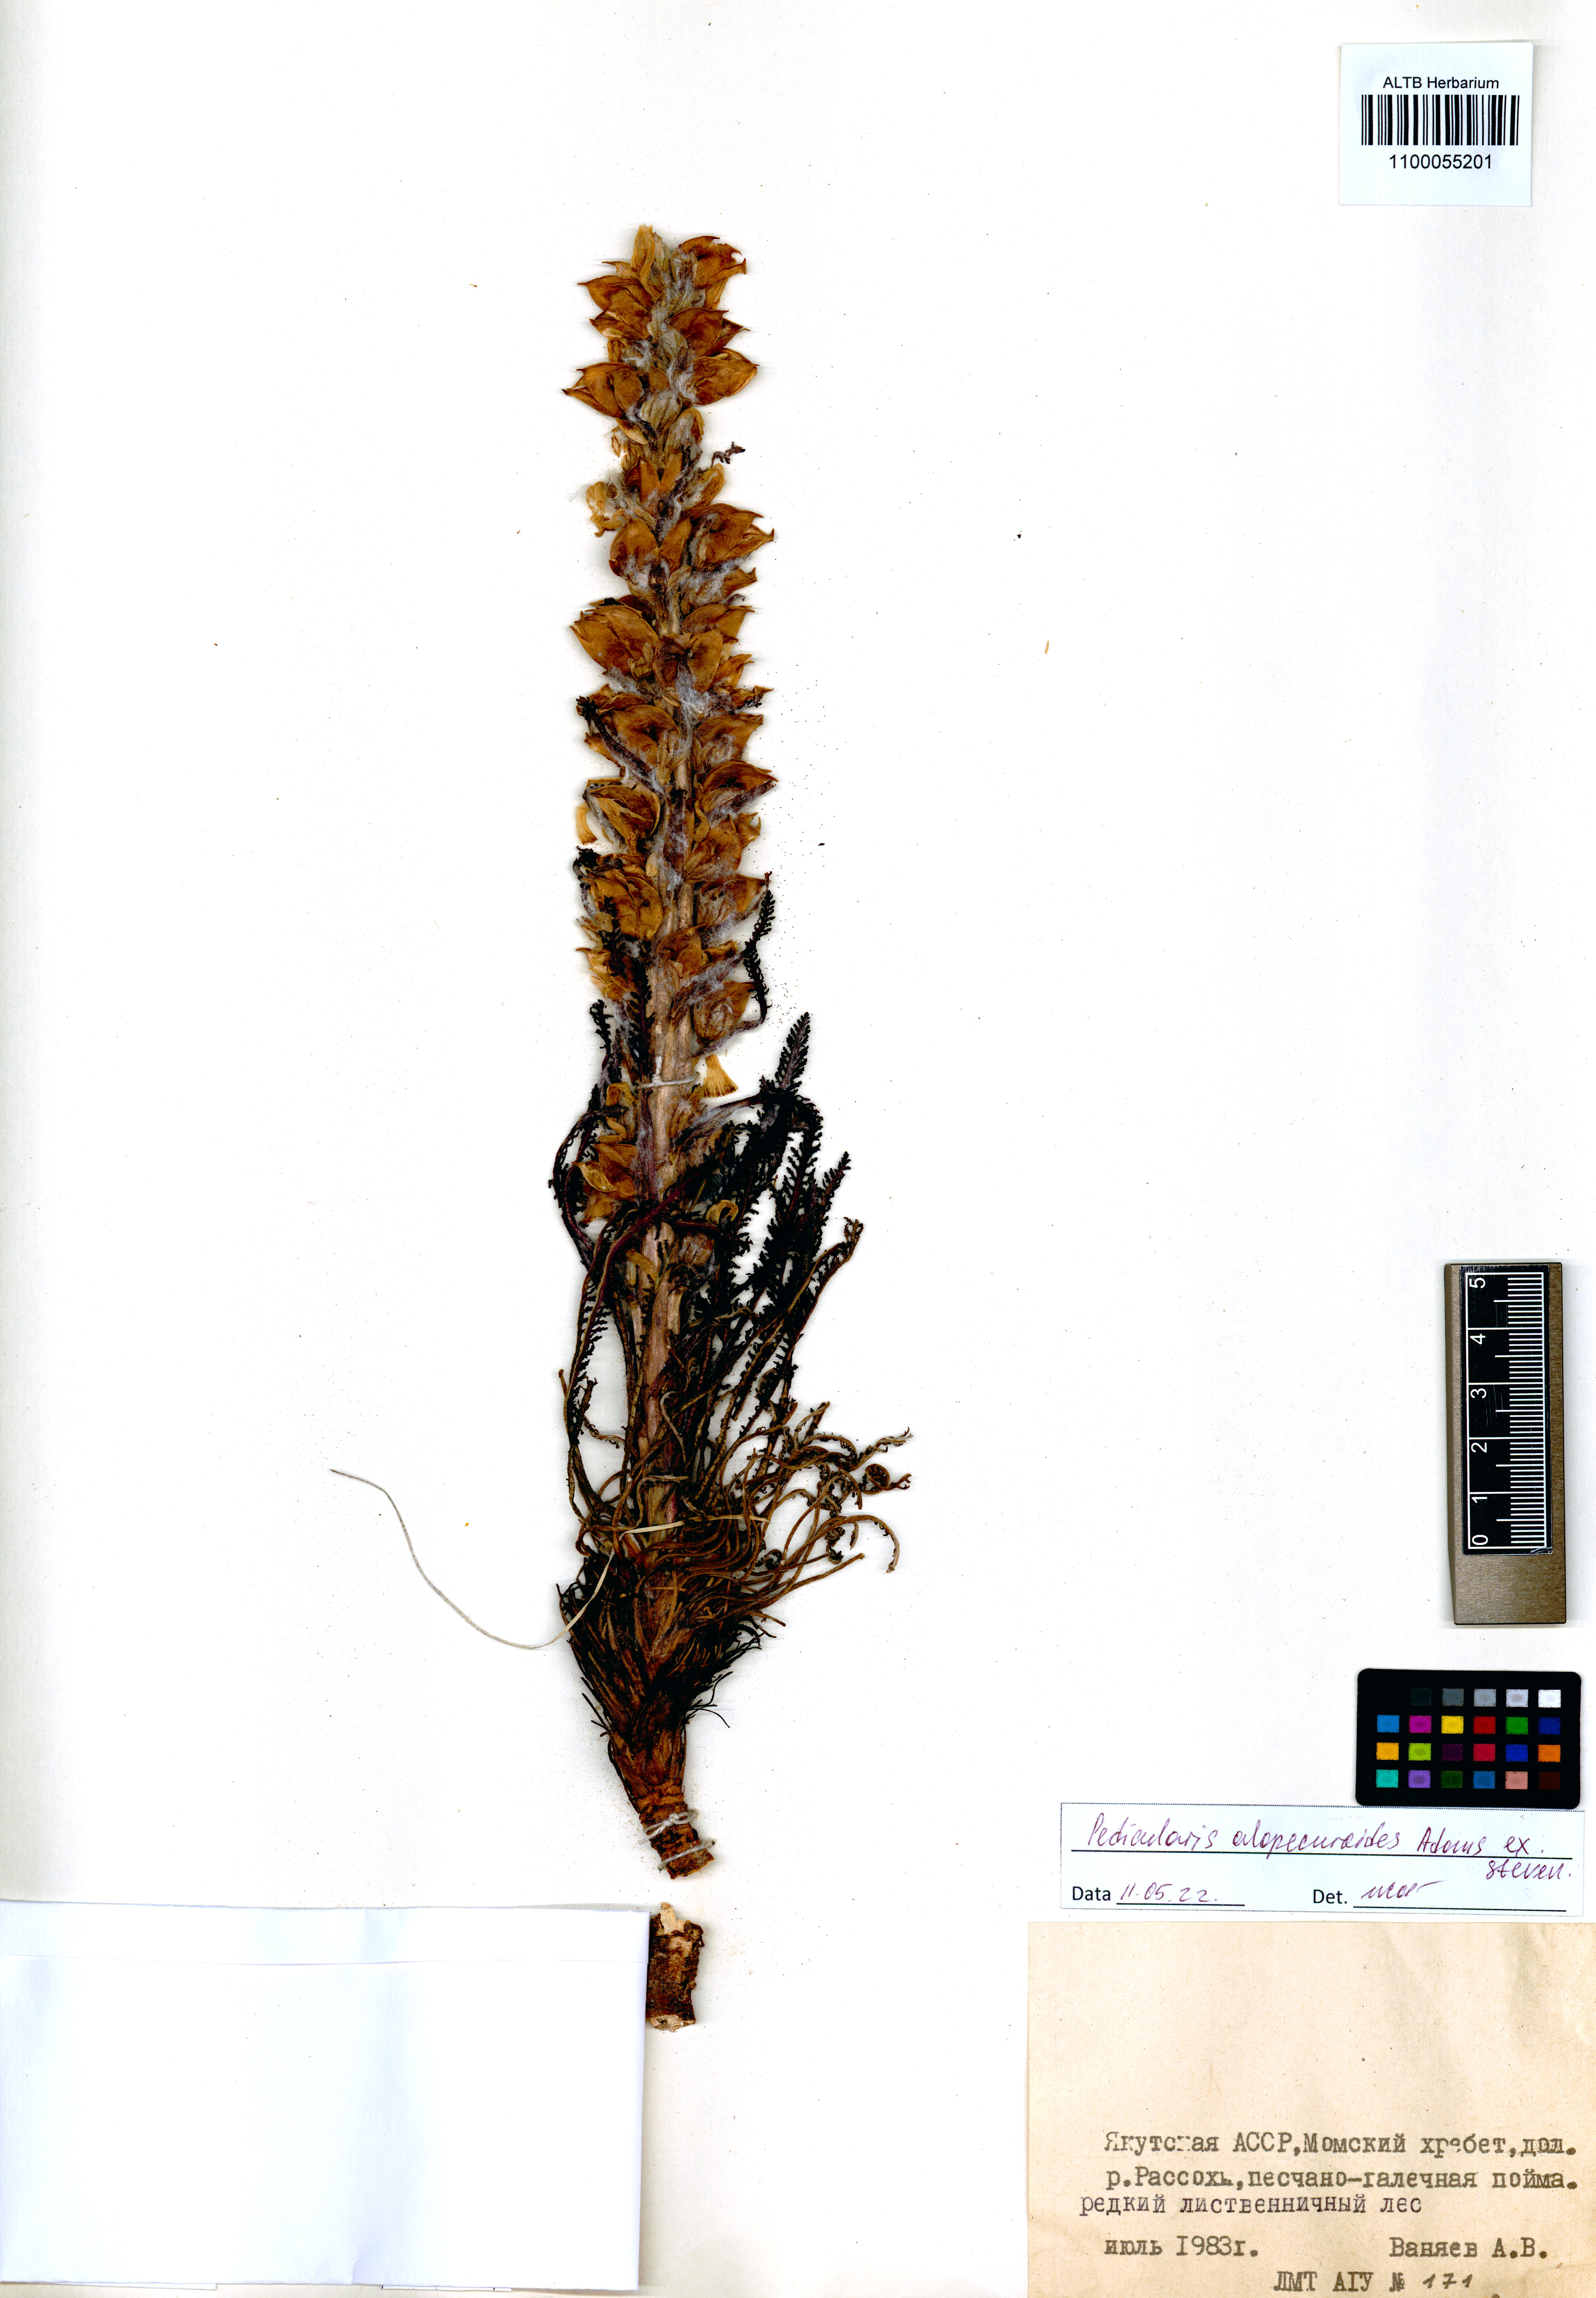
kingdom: Plantae
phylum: Tracheophyta
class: Magnoliopsida
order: Lamiales
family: Orobanchaceae
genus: Pedicularis
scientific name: Pedicularis alopecuroides
